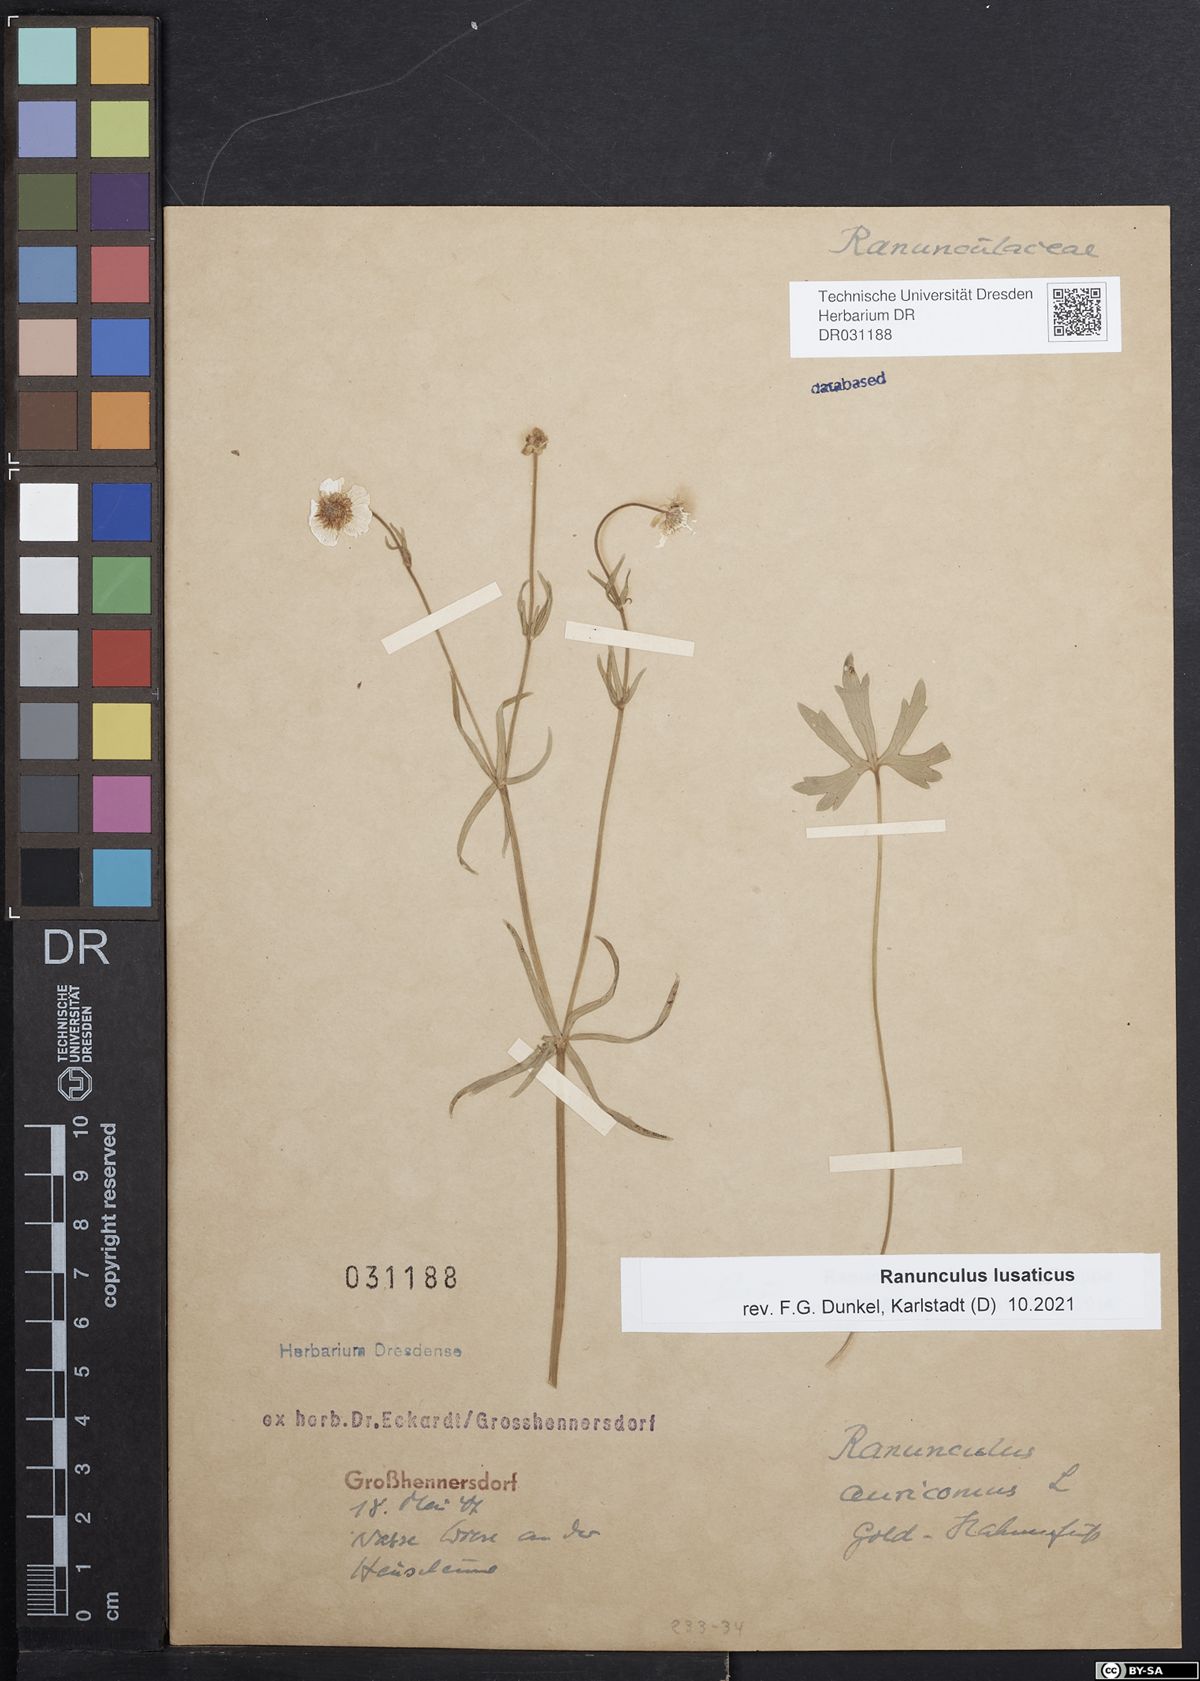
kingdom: Plantae
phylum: Tracheophyta
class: Magnoliopsida
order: Ranunculales
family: Ranunculaceae
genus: Ranunculus
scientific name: Ranunculus lusaticus
